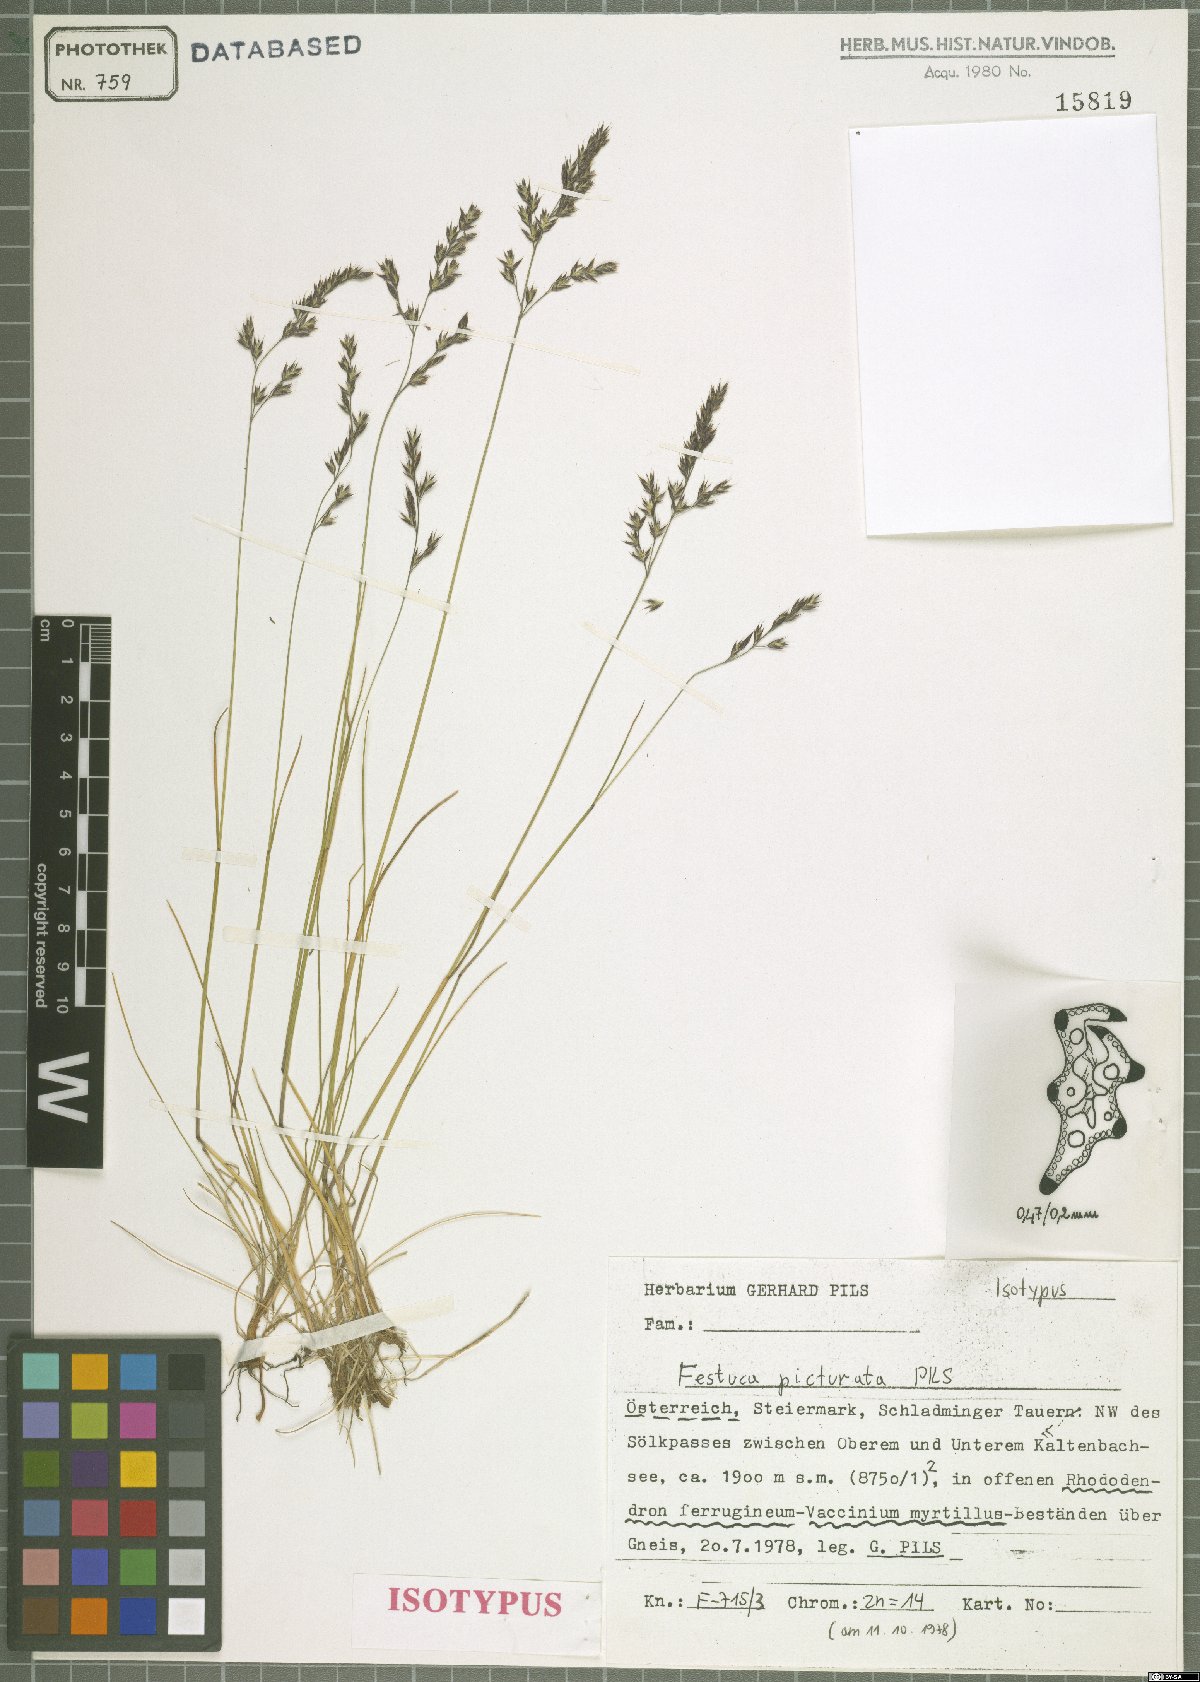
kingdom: Plantae
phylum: Tracheophyta
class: Liliopsida
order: Poales
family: Poaceae
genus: Festuca
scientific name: Festuca picturata
